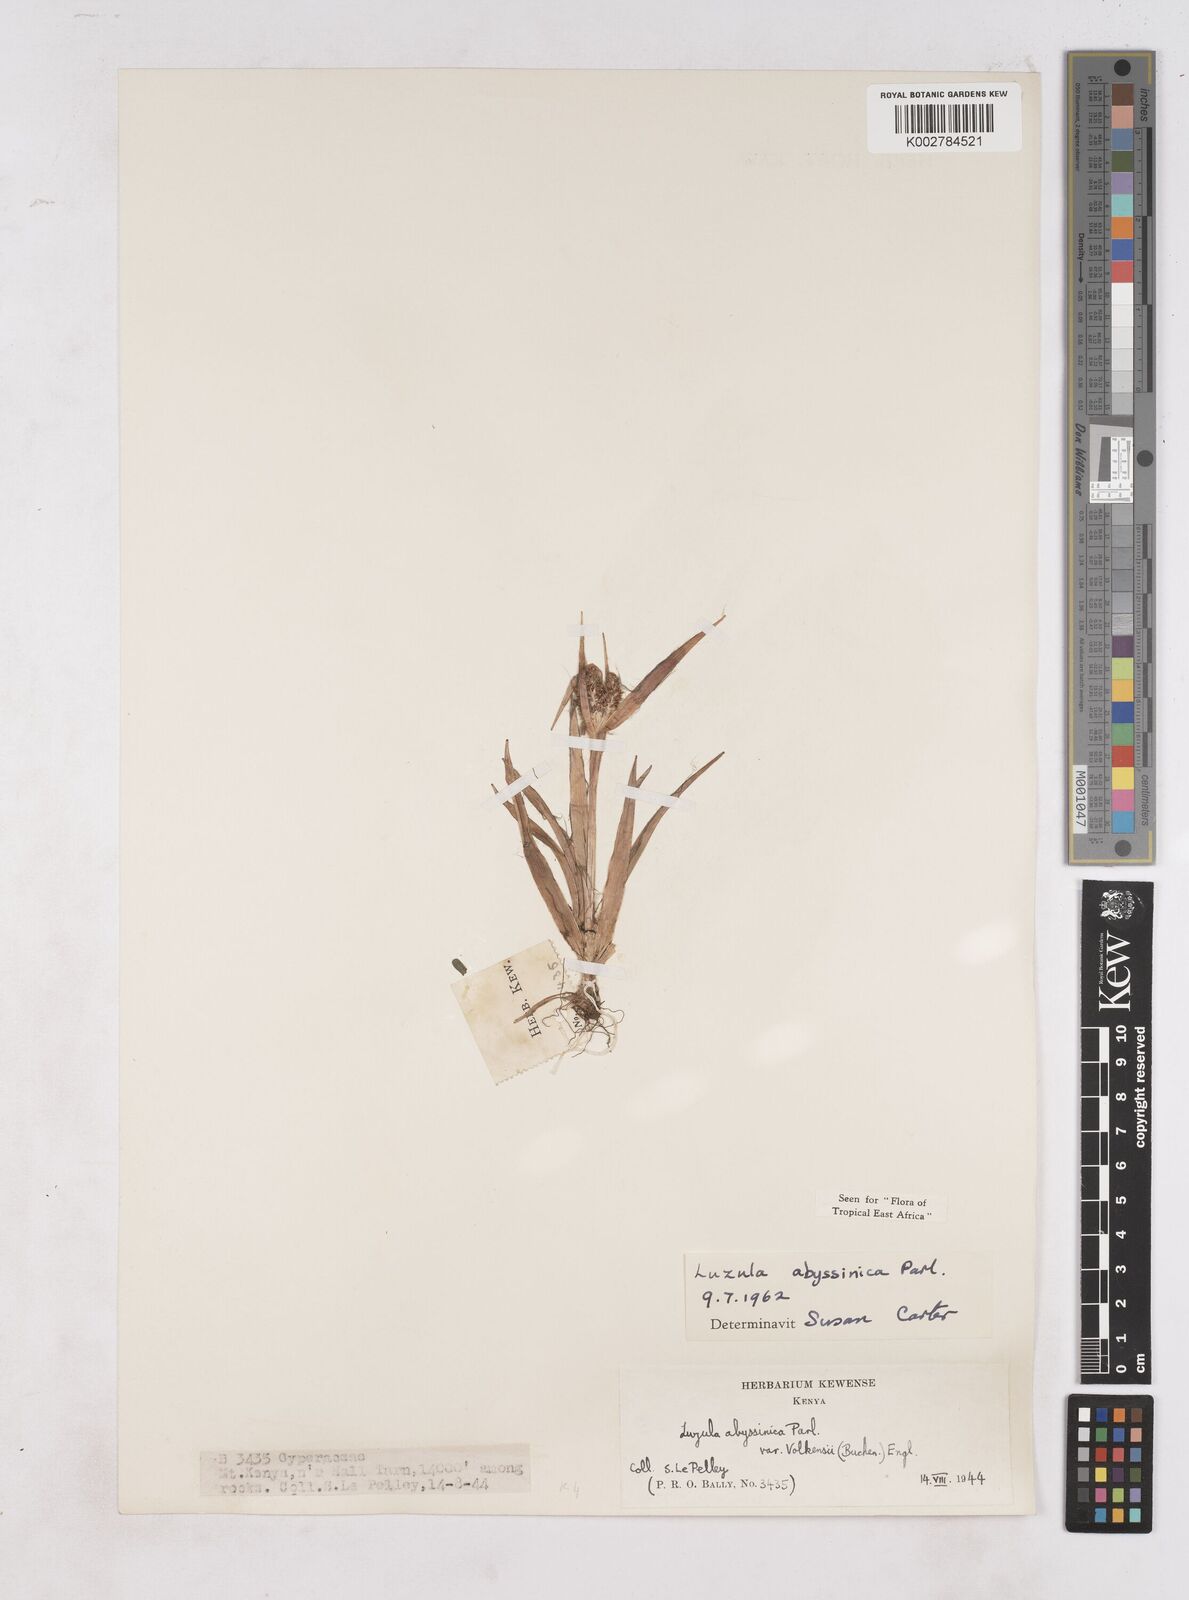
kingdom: Plantae
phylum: Tracheophyta
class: Liliopsida
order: Poales
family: Juncaceae
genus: Luzula
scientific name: Luzula abyssinica
